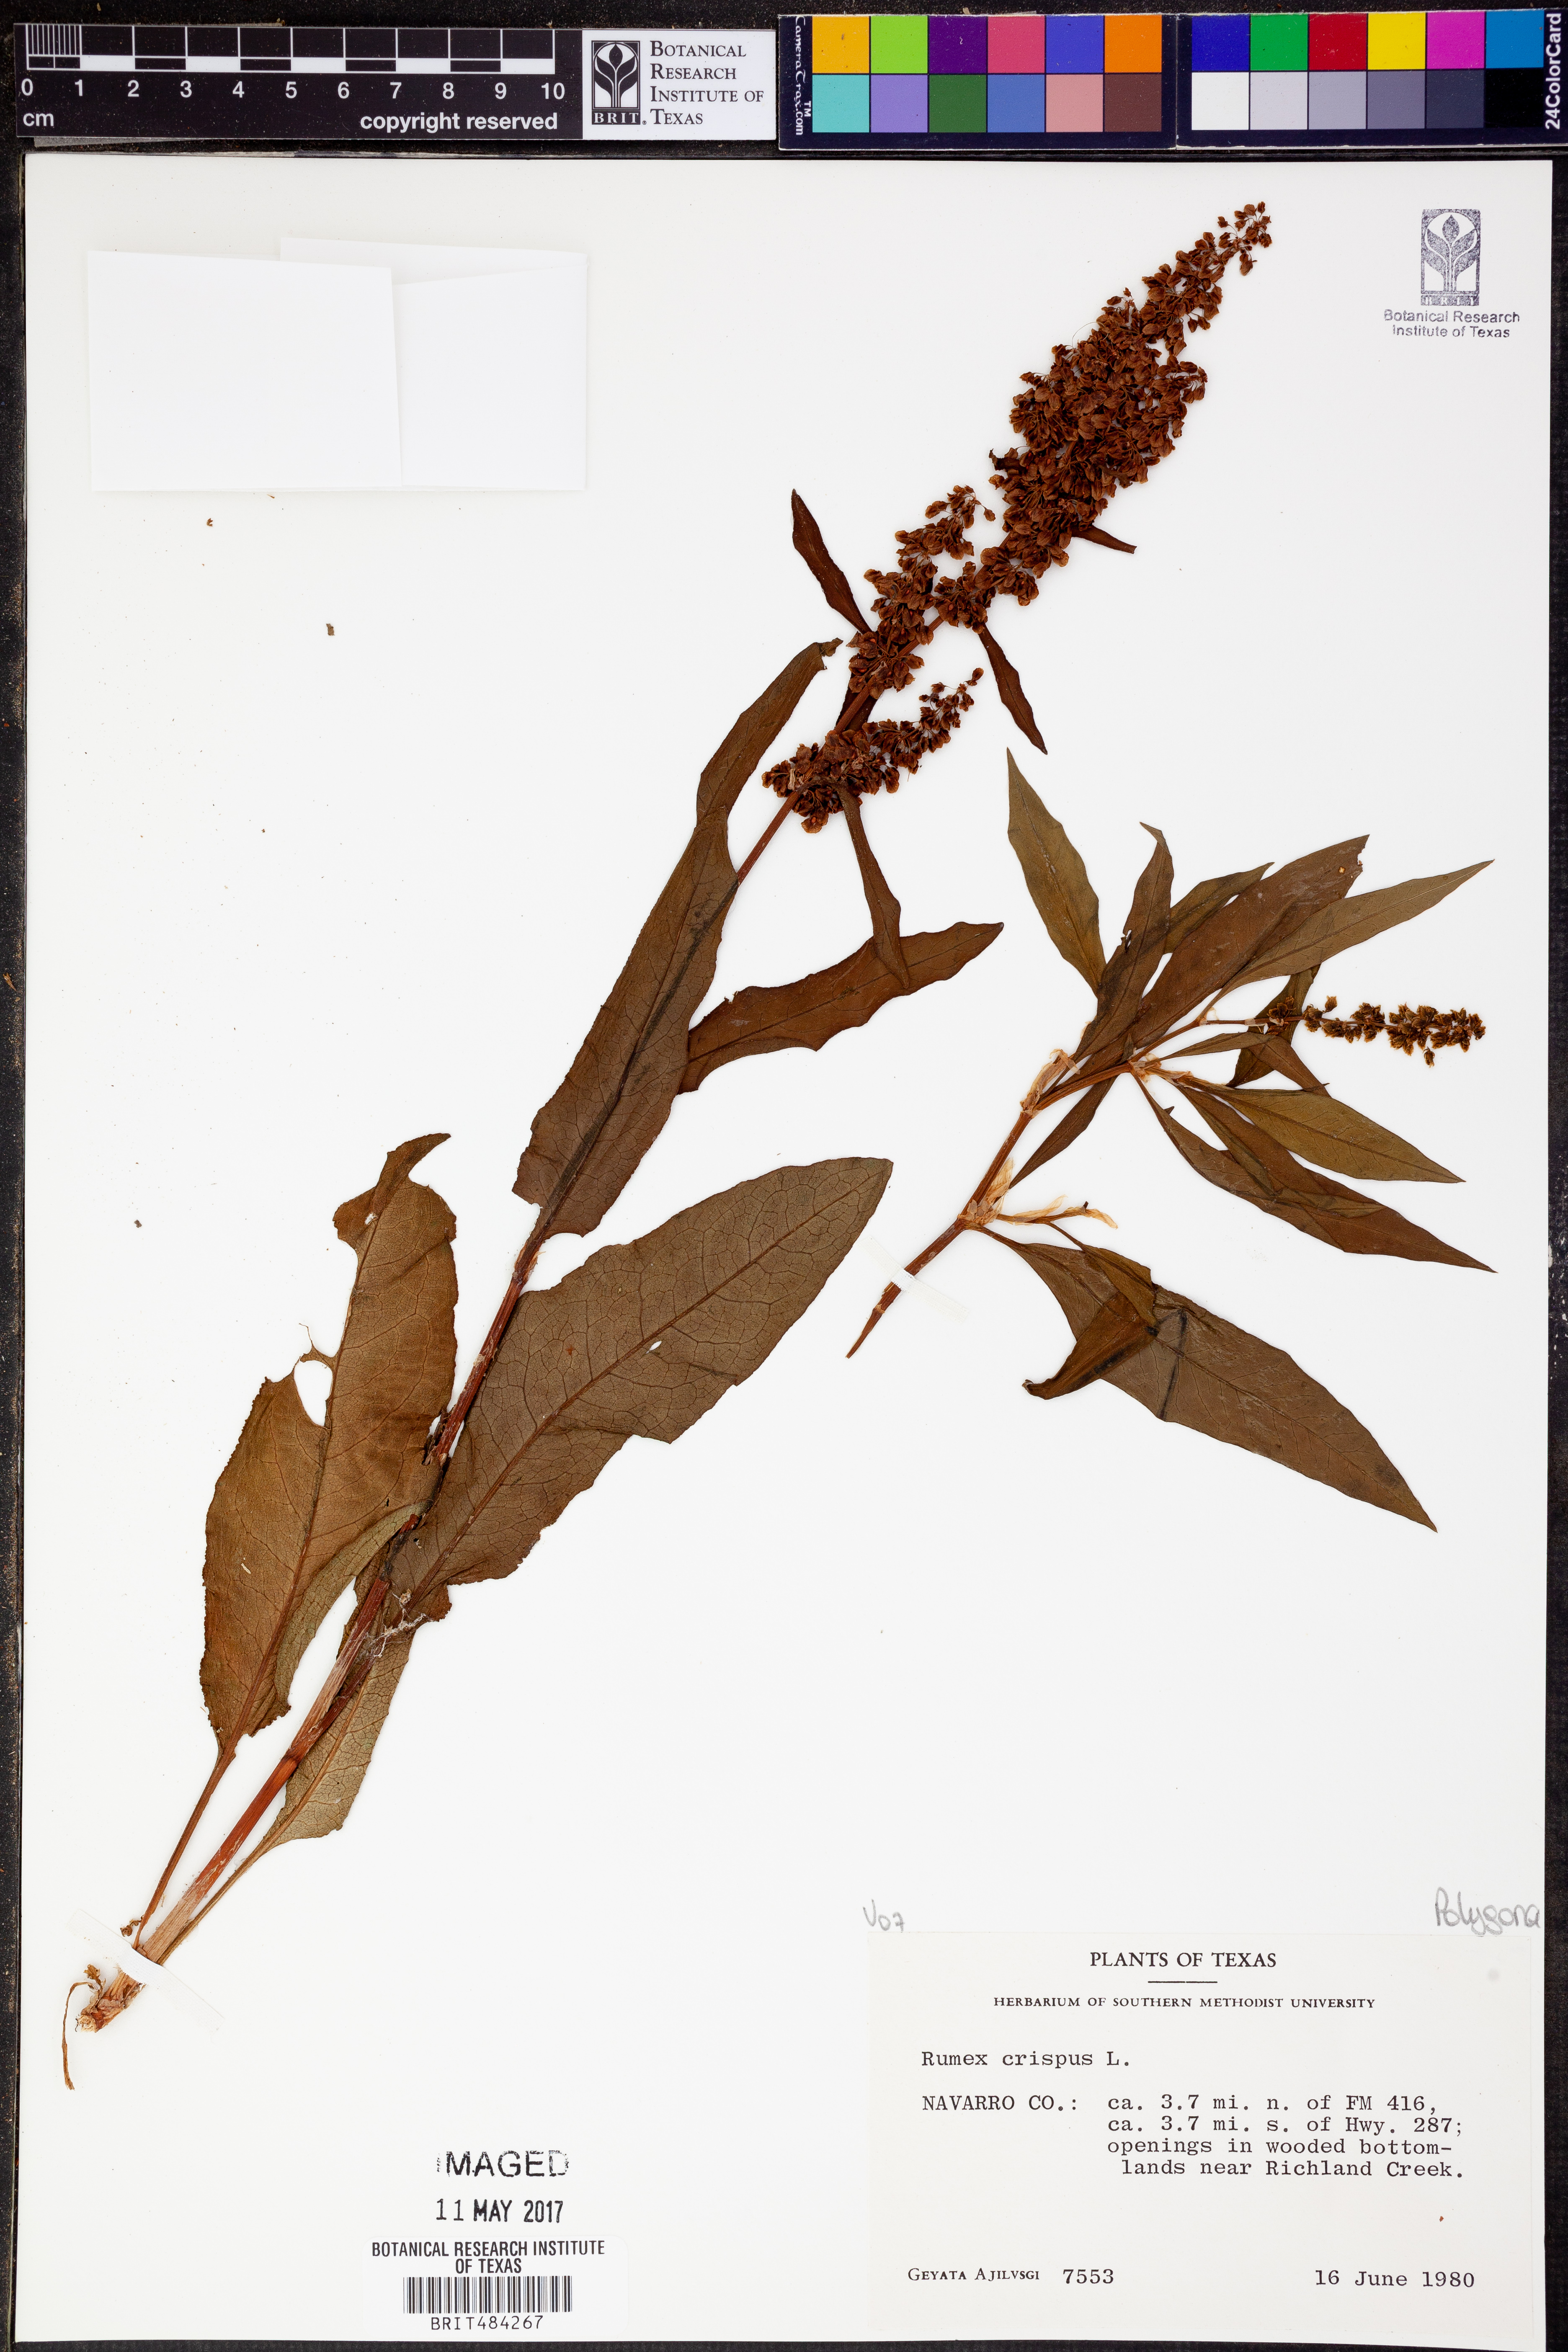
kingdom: Plantae
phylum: Tracheophyta
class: Magnoliopsida
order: Caryophyllales
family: Polygonaceae
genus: Rumex
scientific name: Rumex crispus
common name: Curled dock
